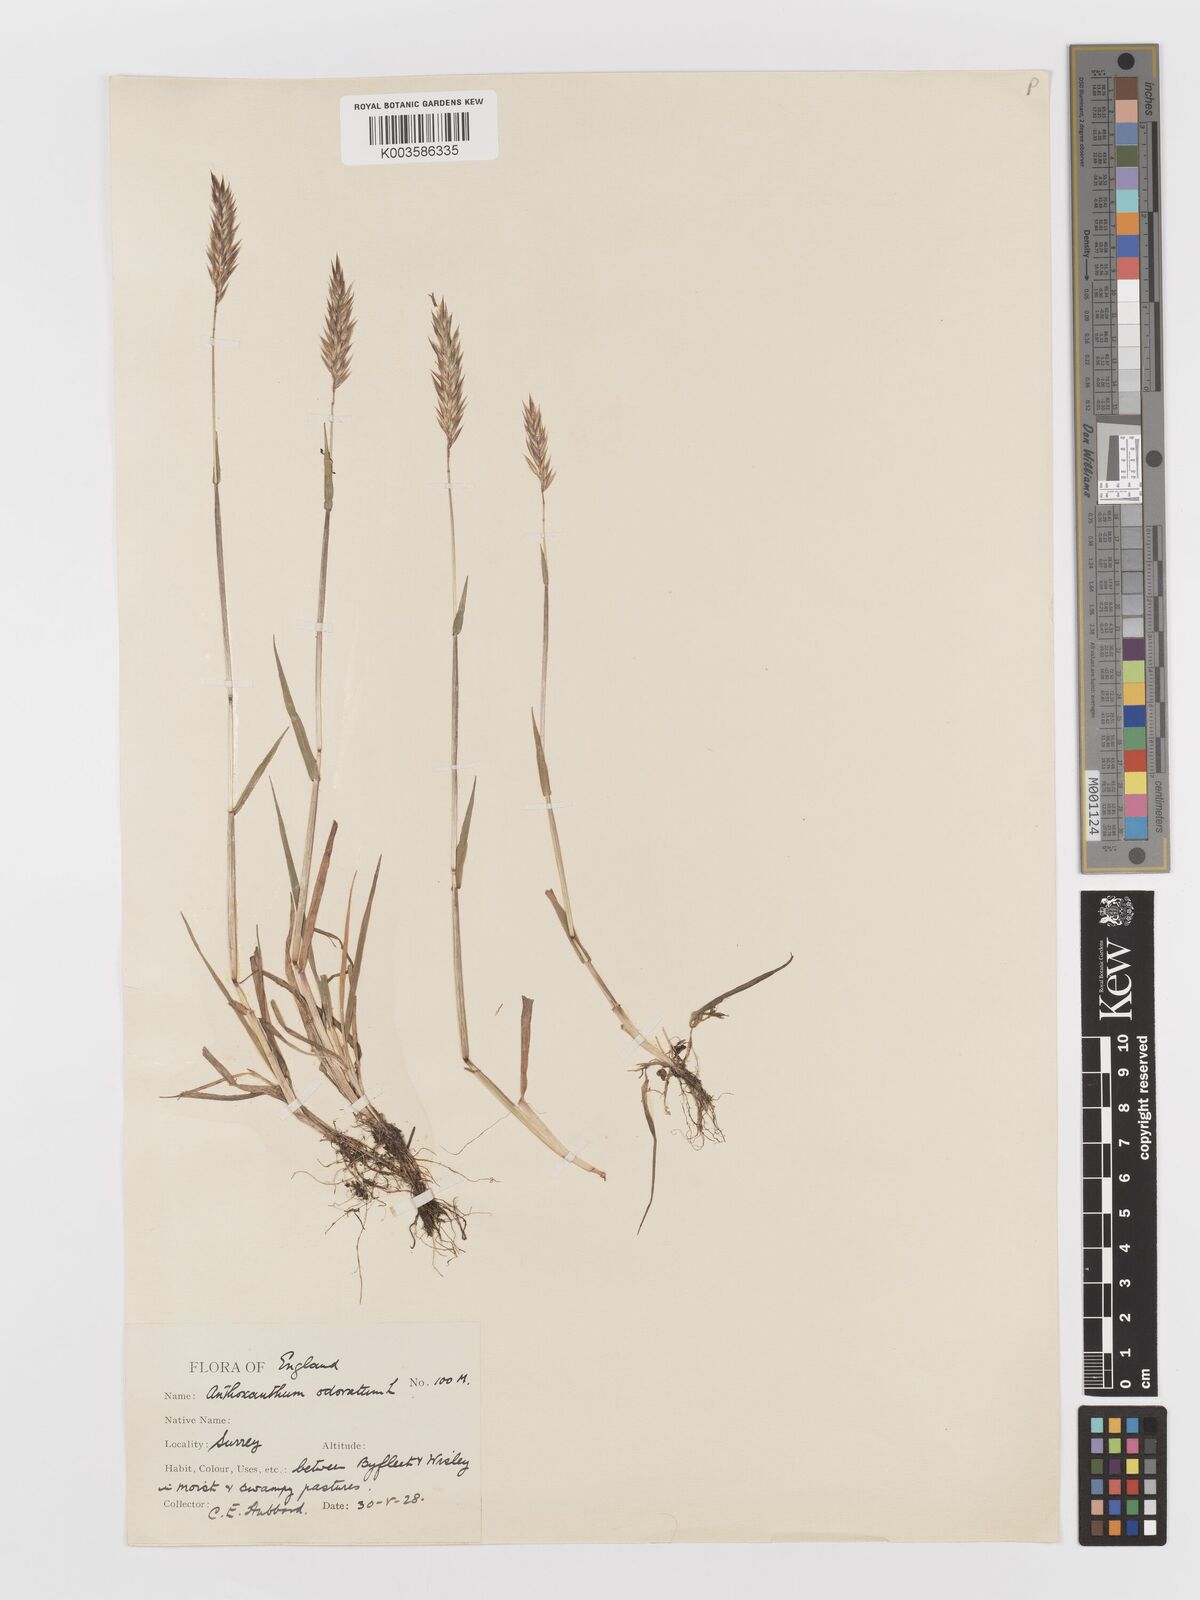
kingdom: Plantae
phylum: Tracheophyta
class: Liliopsida
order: Poales
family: Poaceae
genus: Anthoxanthum
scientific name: Anthoxanthum odoratum
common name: Sweet vernalgrass
